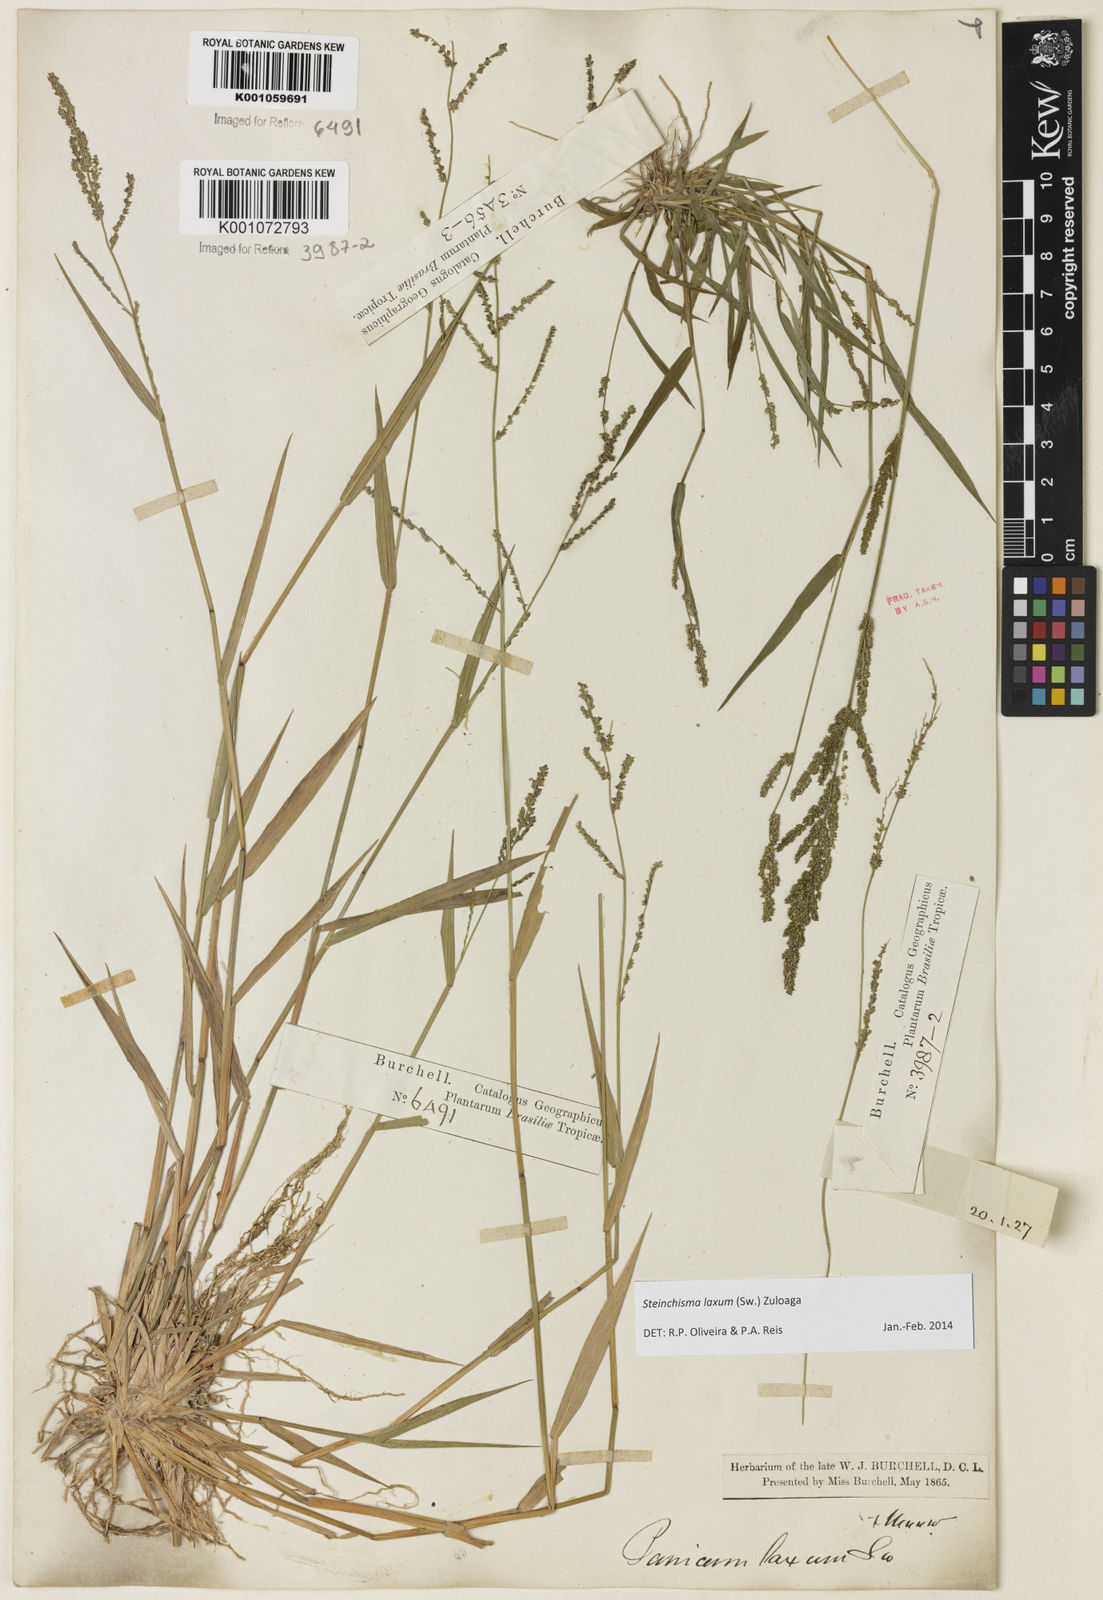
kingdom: Plantae
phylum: Tracheophyta
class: Liliopsida
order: Poales
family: Poaceae
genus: Steinchisma
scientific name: Steinchisma laxum
